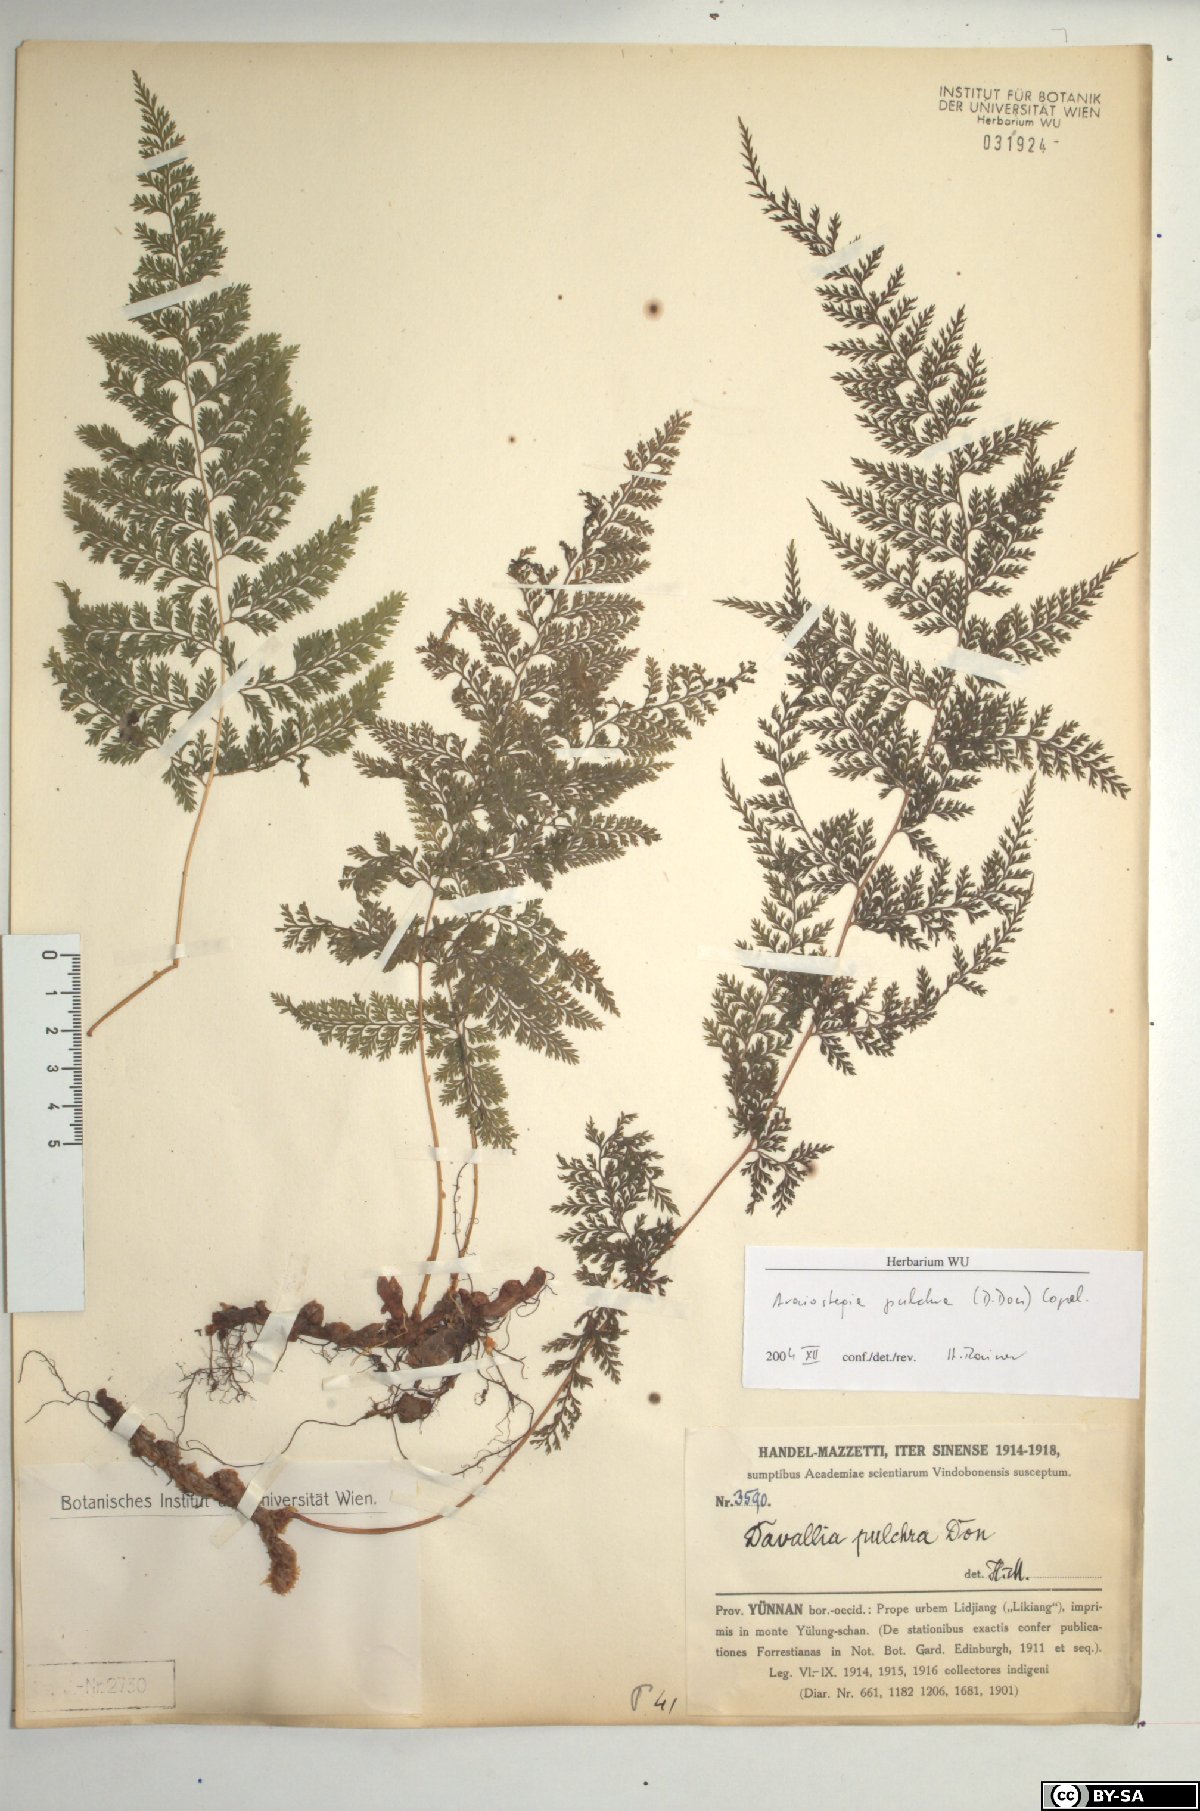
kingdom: Plantae
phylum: Tracheophyta
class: Polypodiopsida
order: Polypodiales
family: Davalliaceae
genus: Davallodes
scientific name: Davallodes pulchra
